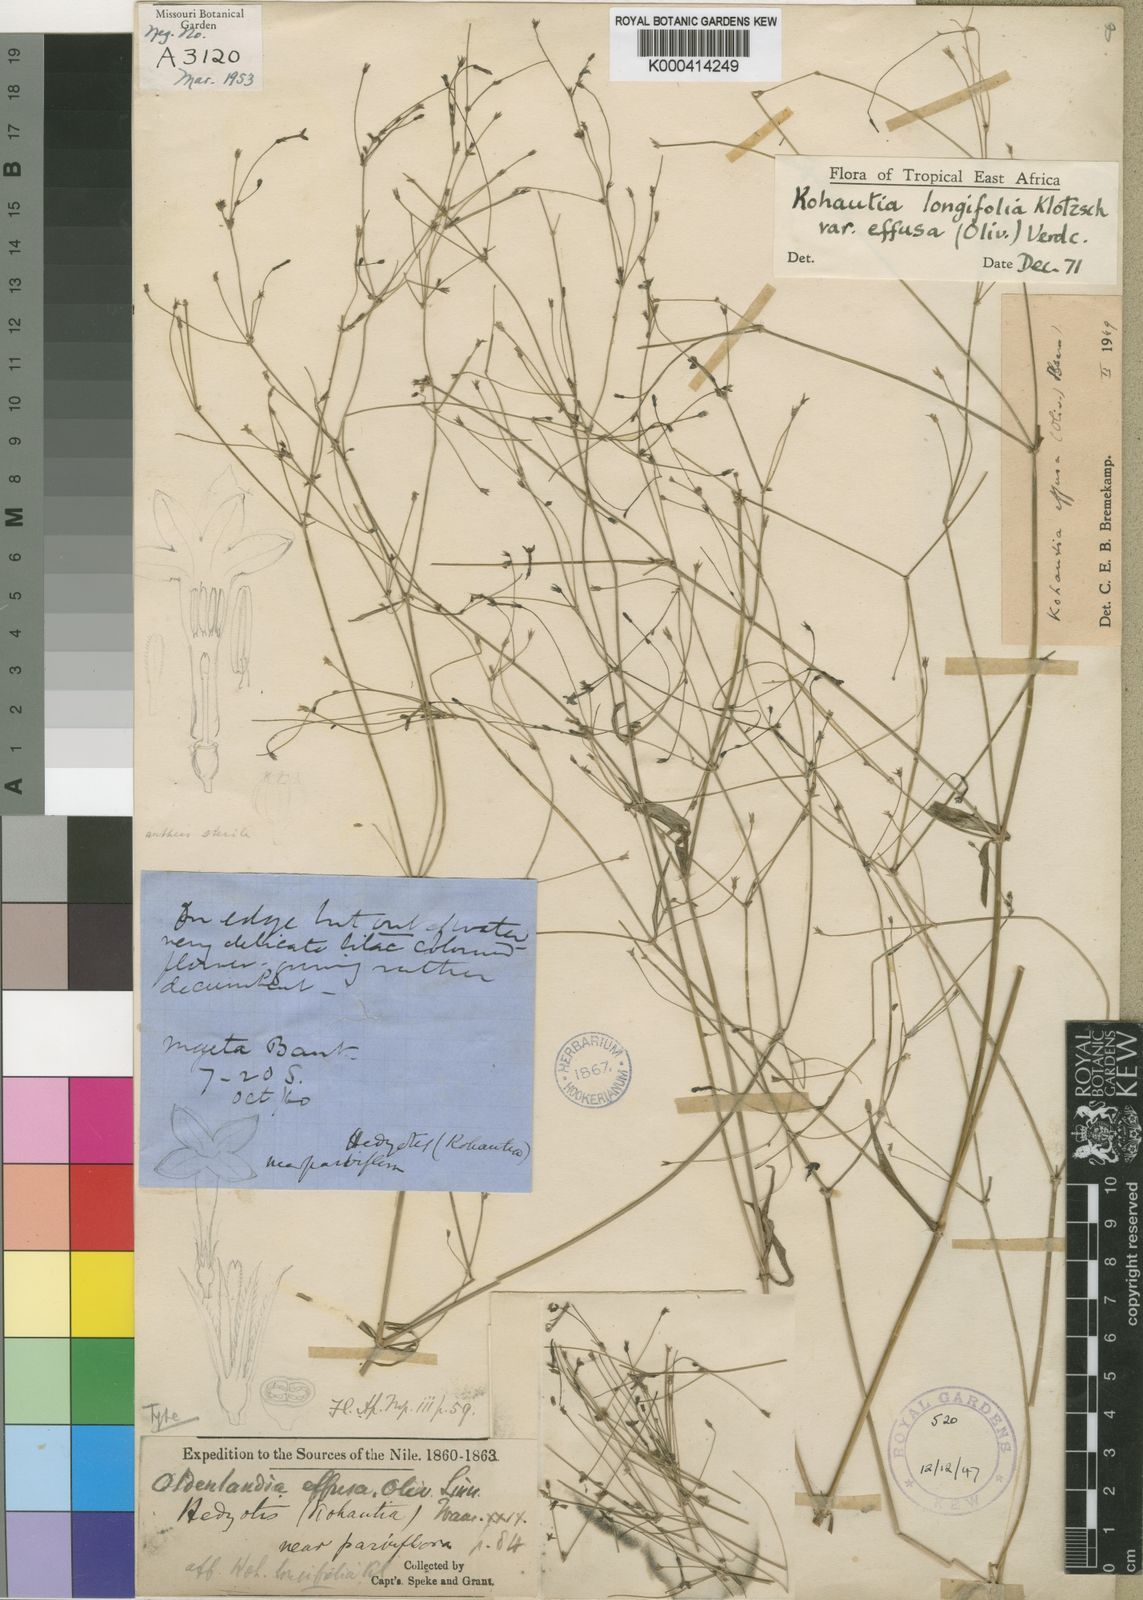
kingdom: Plantae
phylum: Tracheophyta
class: Magnoliopsida
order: Gentianales
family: Rubiaceae
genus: Cordylostigma
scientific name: Cordylostigma longifolium
